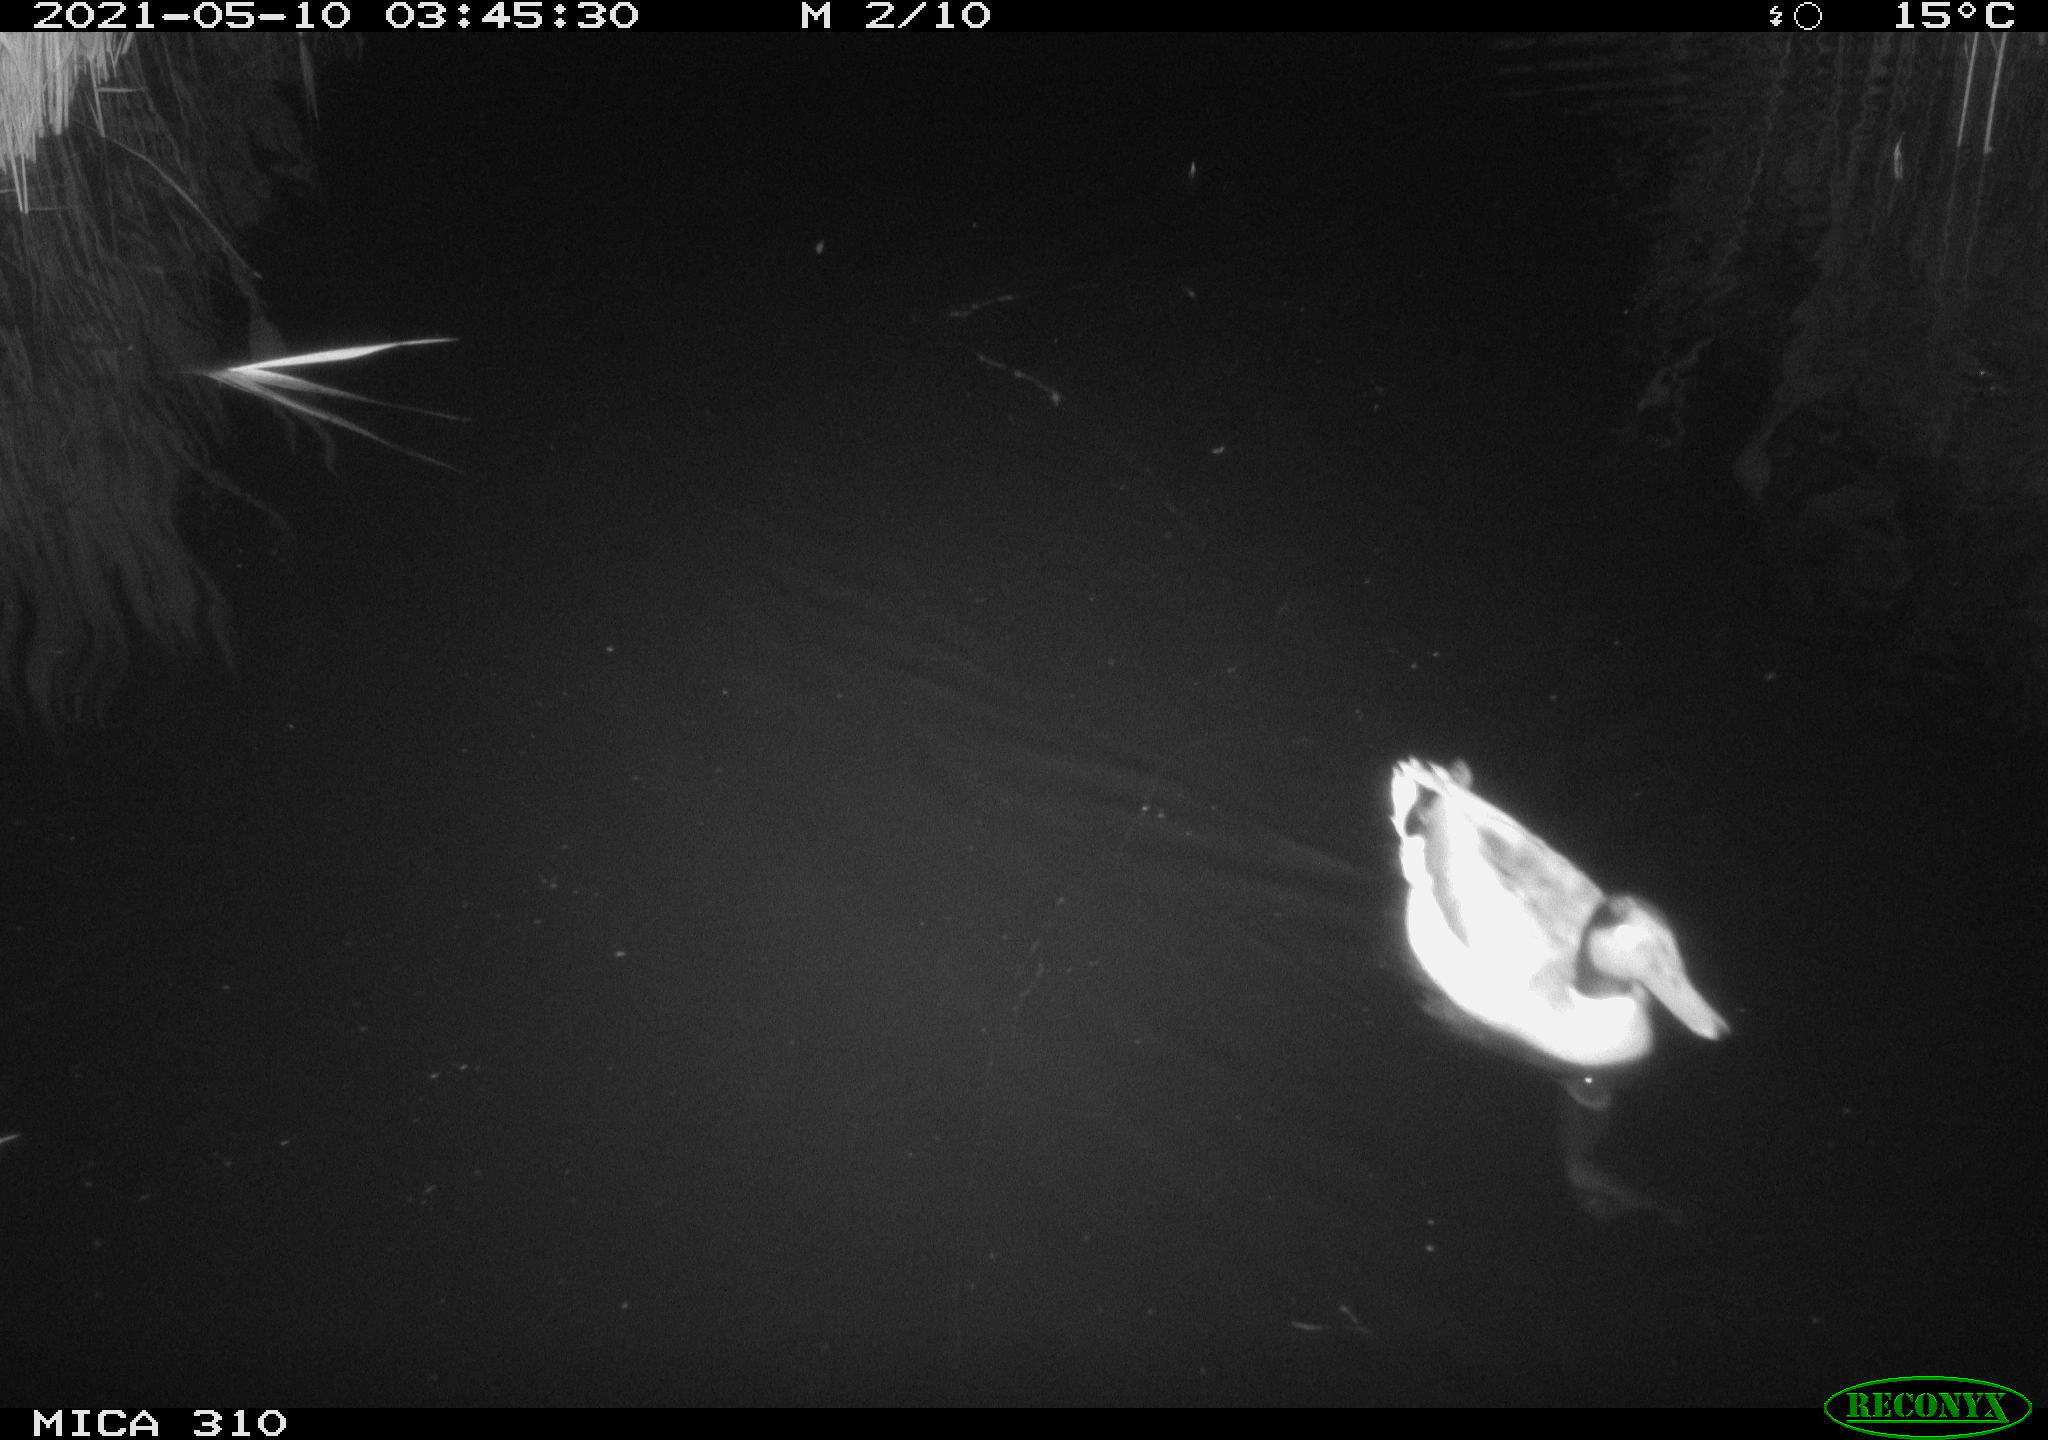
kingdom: Animalia
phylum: Chordata
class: Aves
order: Anseriformes
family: Anatidae
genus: Anas
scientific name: Anas platyrhynchos
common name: Mallard
